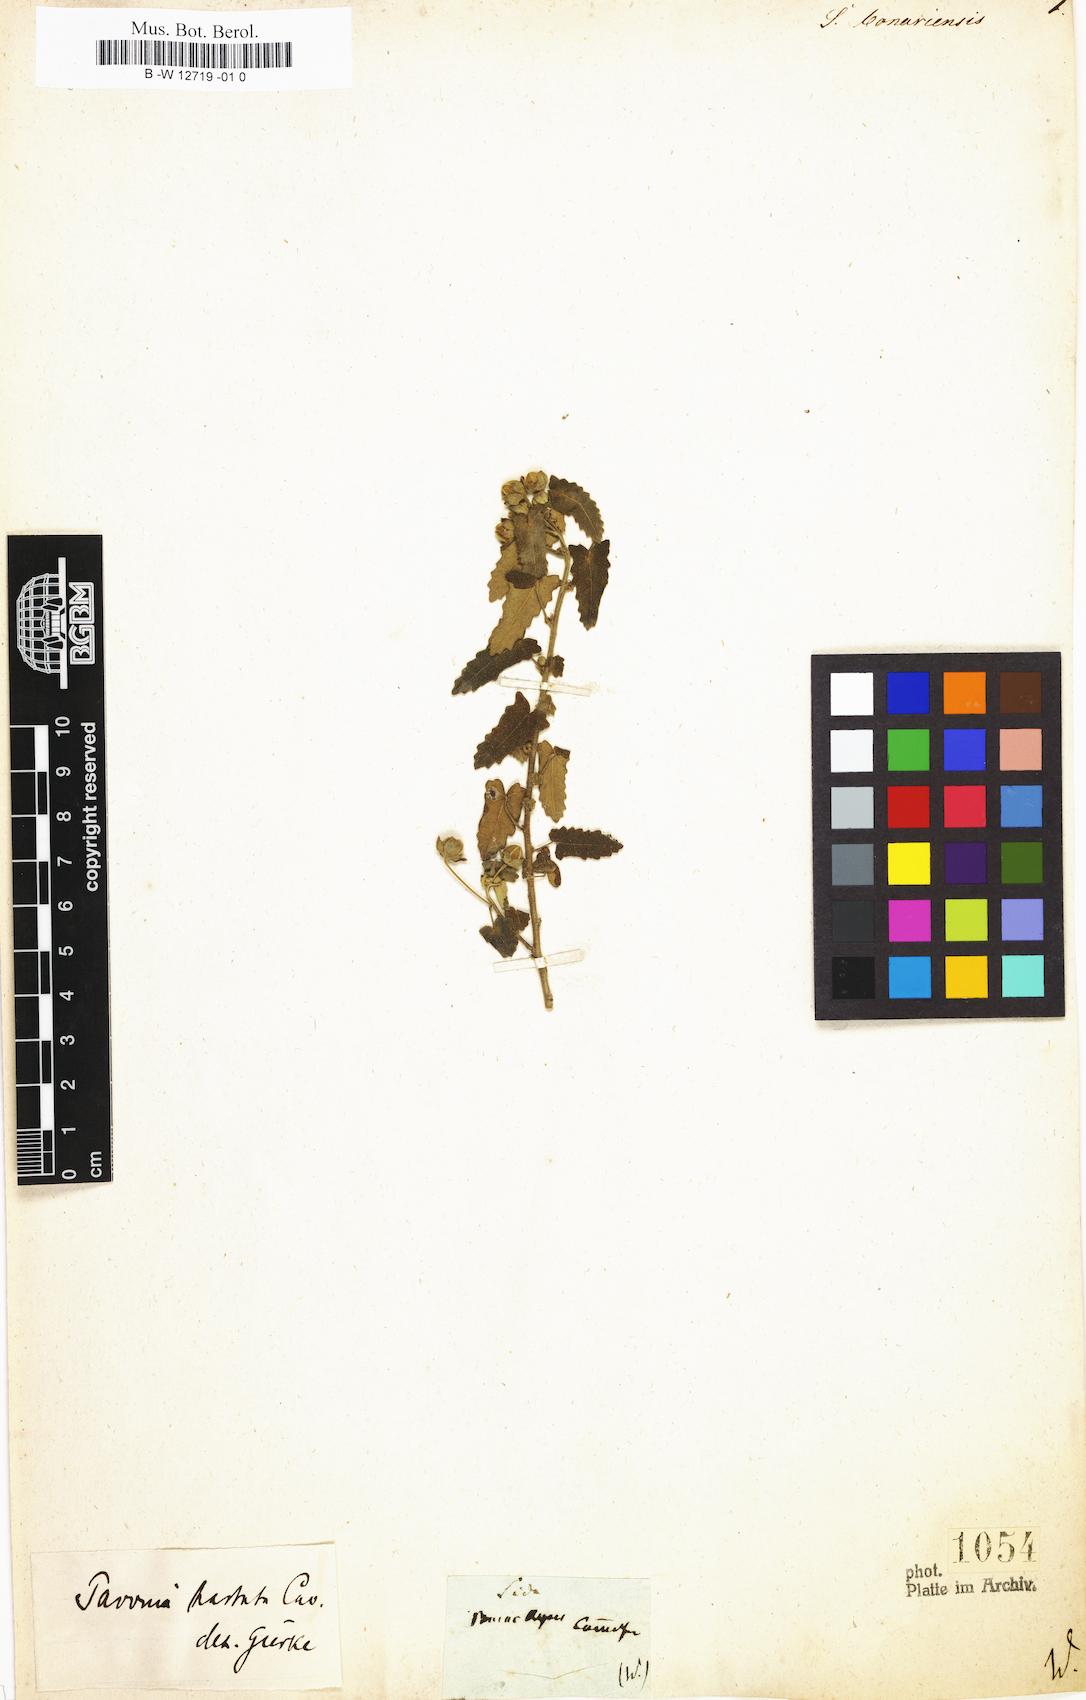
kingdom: Plantae
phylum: Tracheophyta
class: Magnoliopsida
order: Malvales
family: Malvaceae
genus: Pavonia
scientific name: Pavonia hastata
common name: Spearleaf swampmallow
